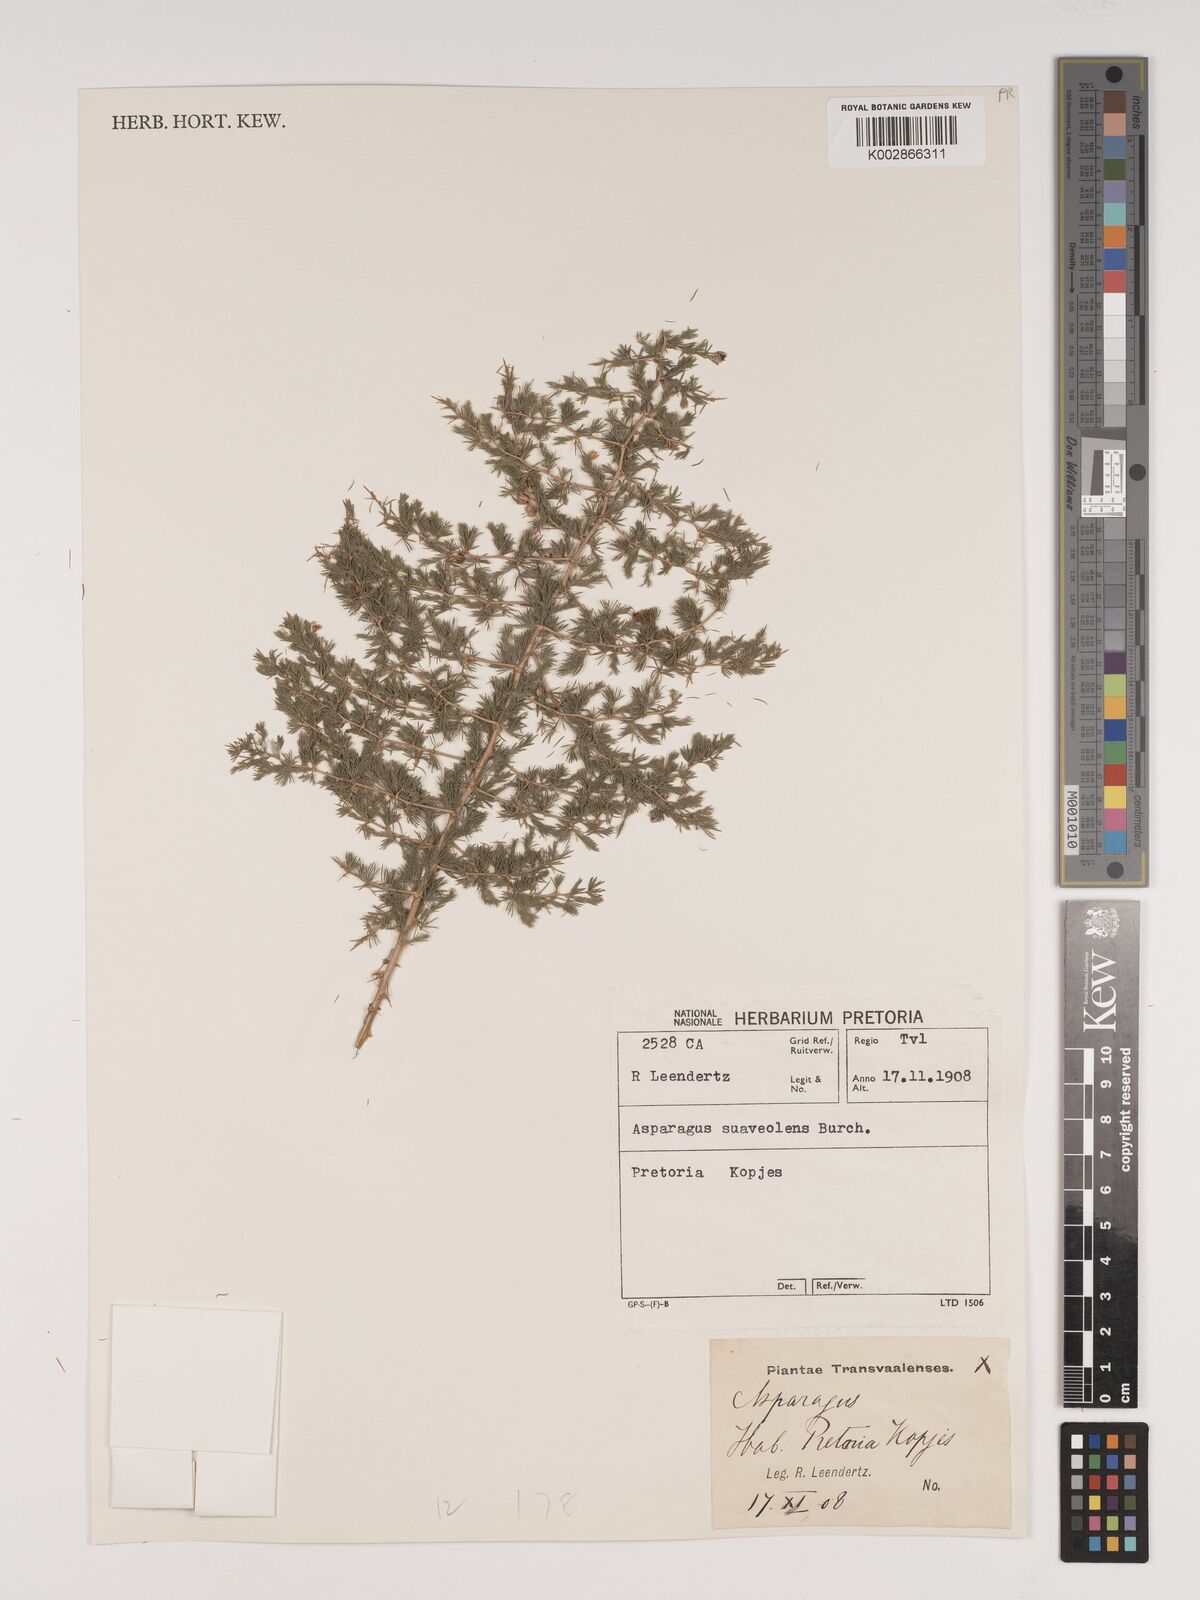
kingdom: Plantae
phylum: Tracheophyta
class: Liliopsida
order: Asparagales
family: Asparagaceae
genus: Asparagus
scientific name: Asparagus suaveolens
